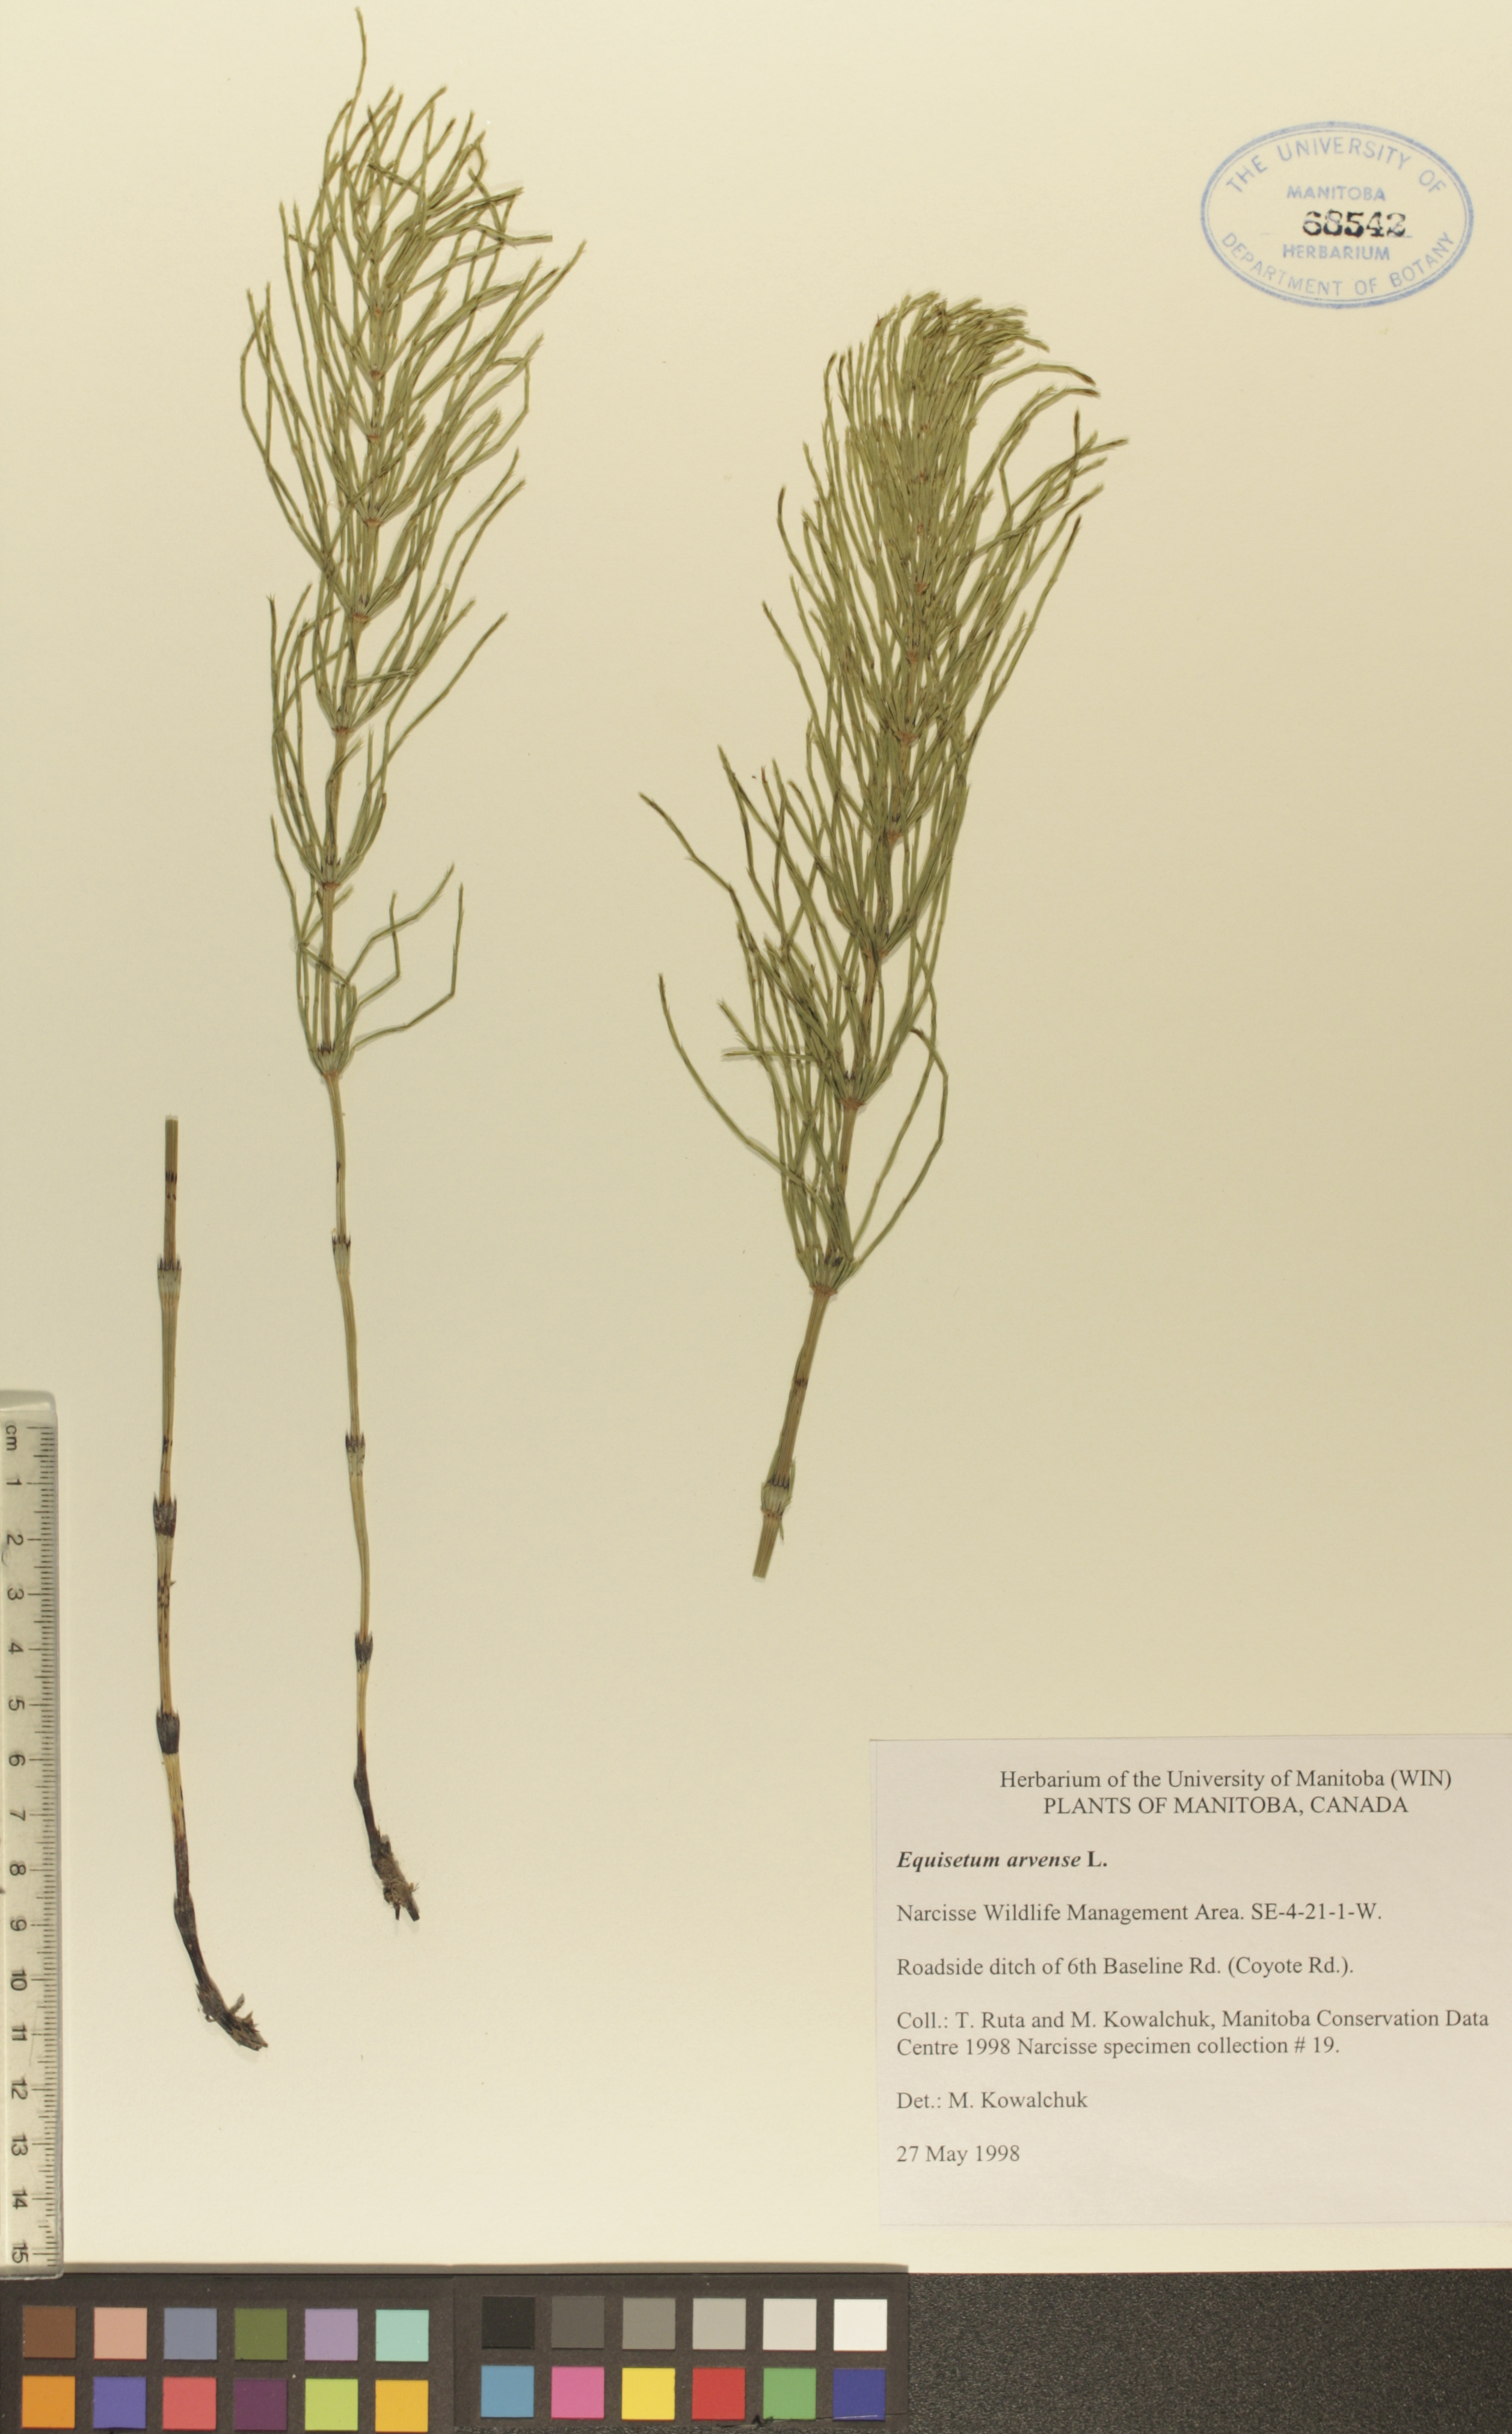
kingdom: Plantae
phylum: Tracheophyta
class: Polypodiopsida
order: Equisetales
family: Equisetaceae
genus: Equisetum
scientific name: Equisetum arvense
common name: Field horsetail
